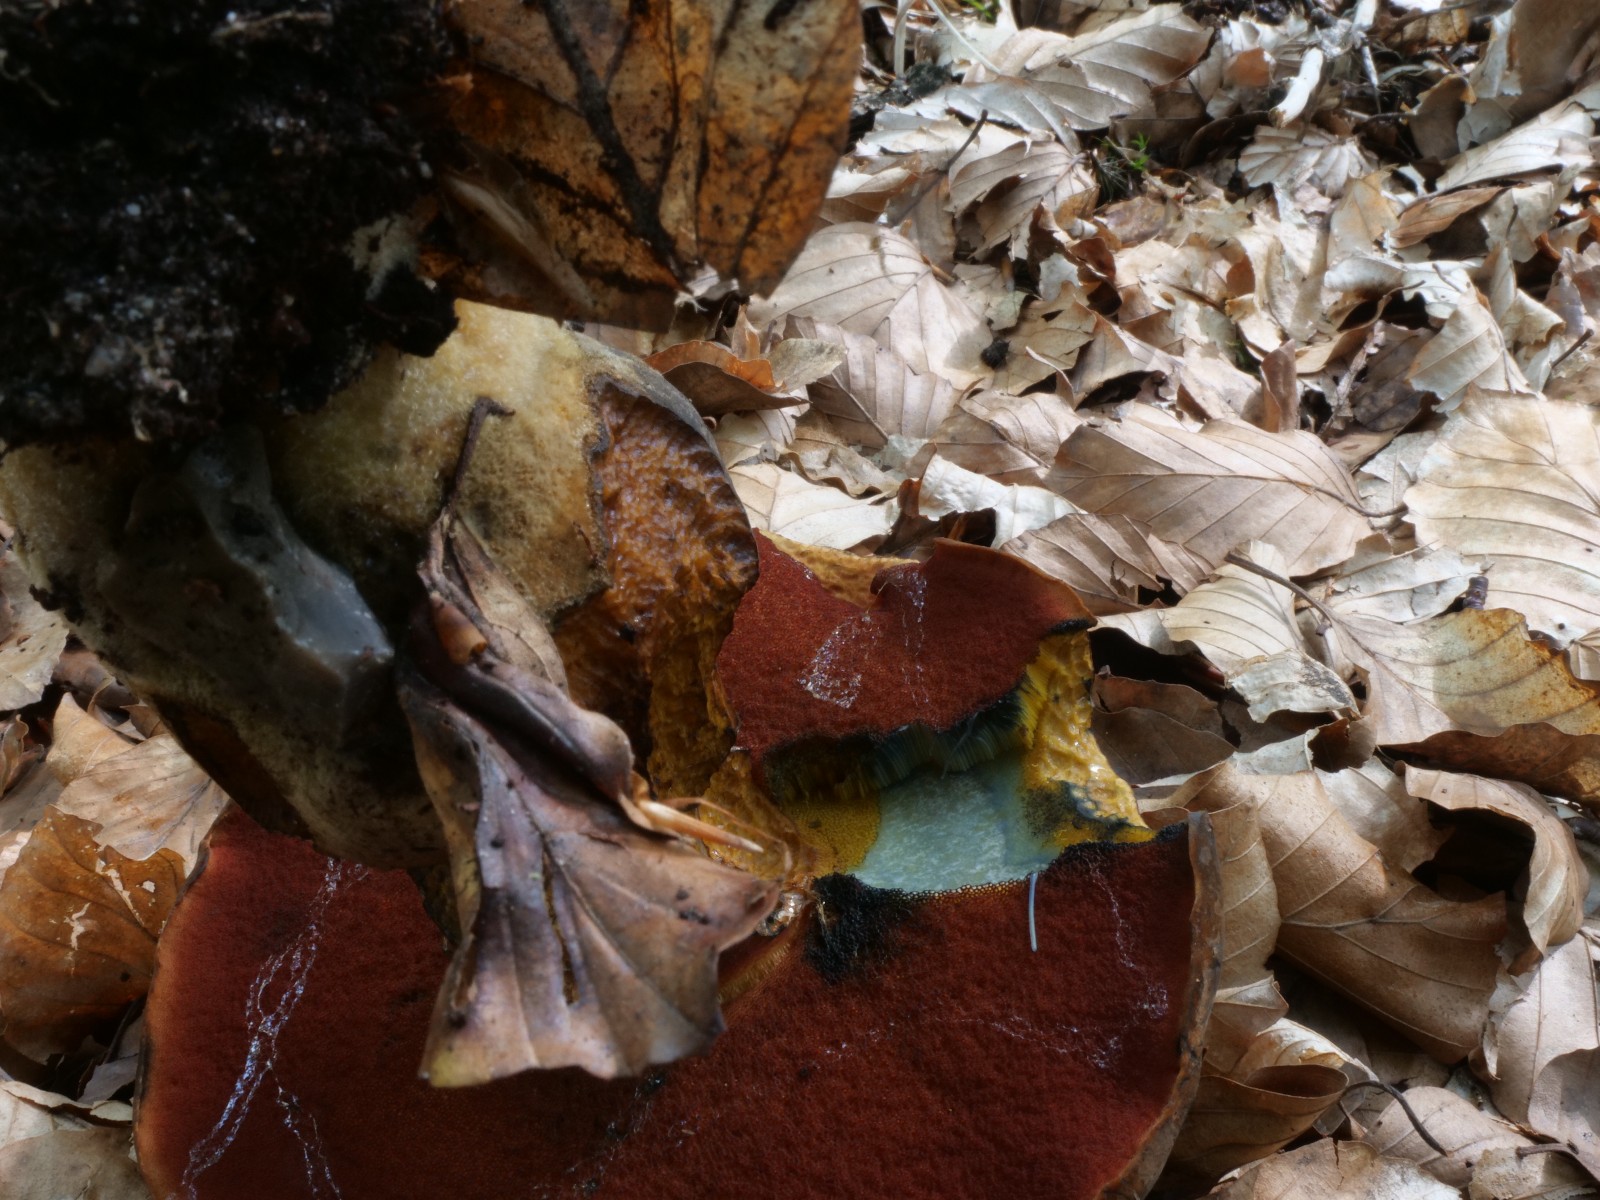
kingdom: Fungi
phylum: Basidiomycota
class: Agaricomycetes
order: Boletales
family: Boletaceae
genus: Neoboletus
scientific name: Neoboletus erythropus
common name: punktstokket indigorørhat
